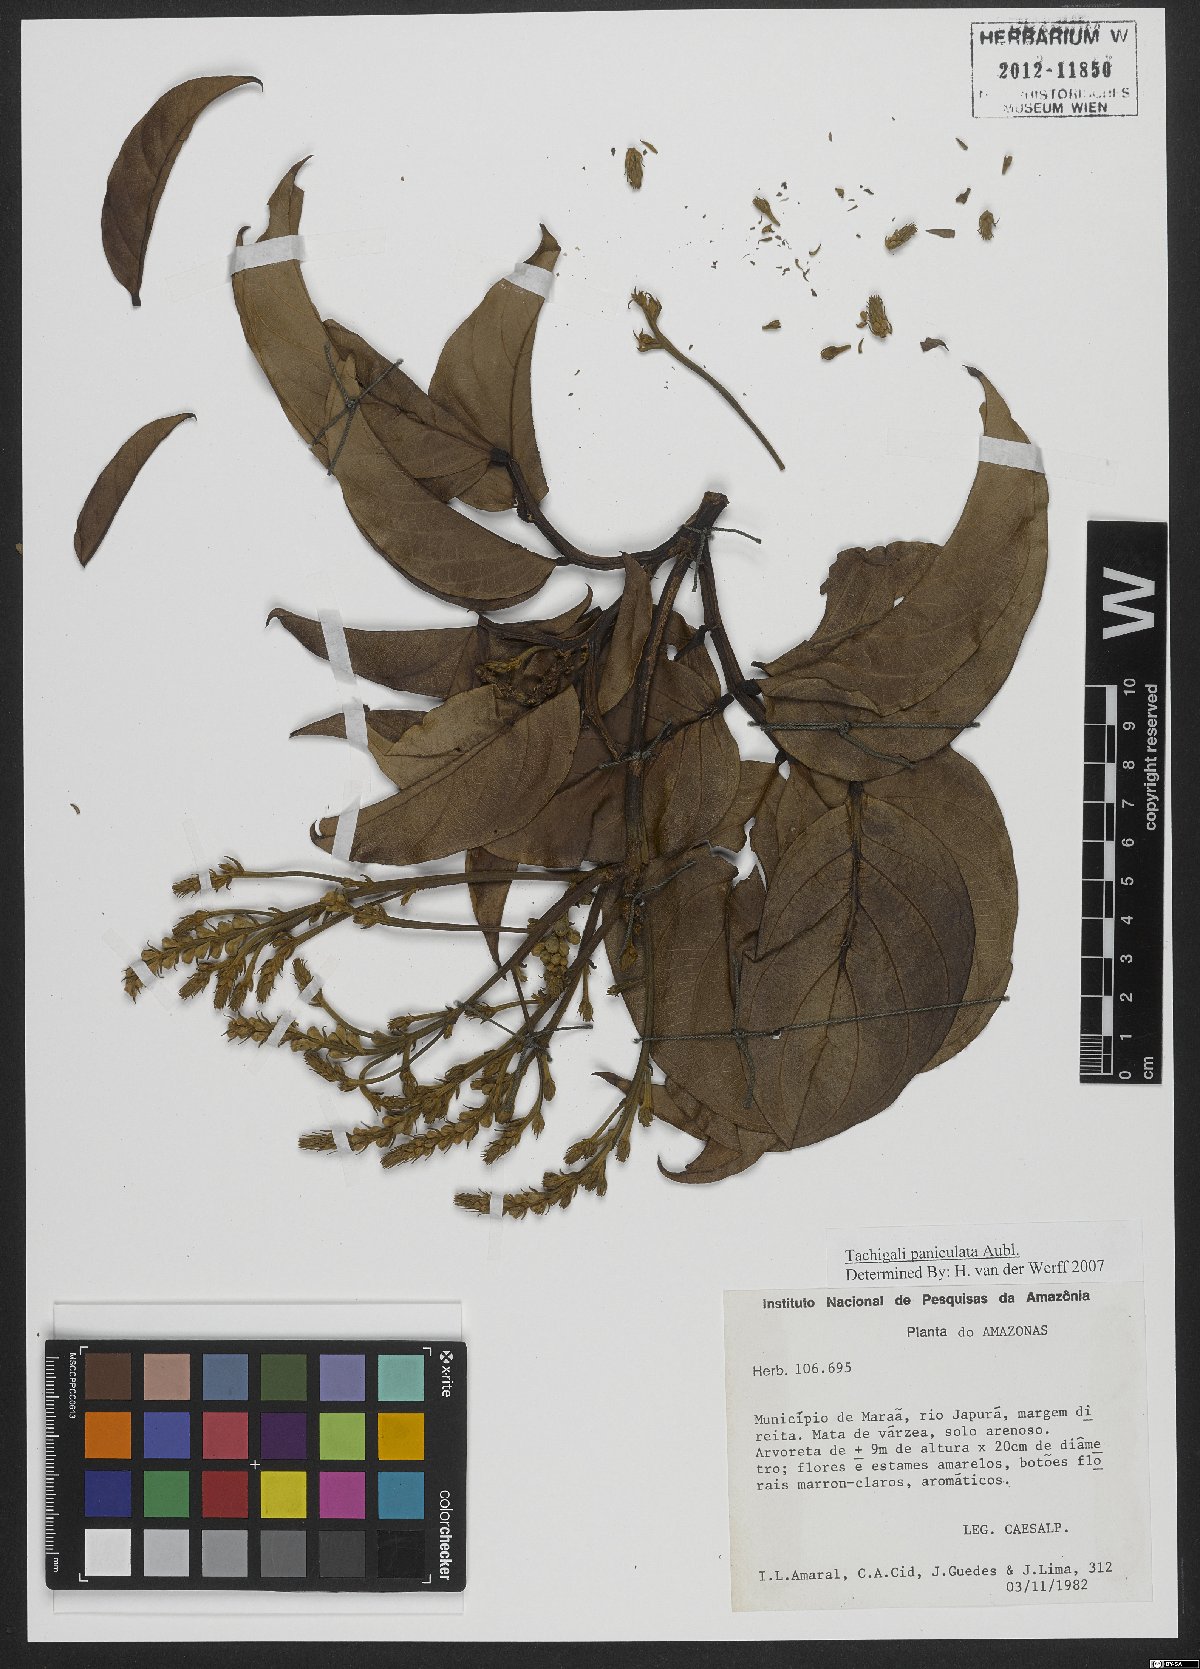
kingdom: Plantae
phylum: Tracheophyta
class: Magnoliopsida
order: Fabales
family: Fabaceae
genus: Tachigali
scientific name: Tachigali paniculata
